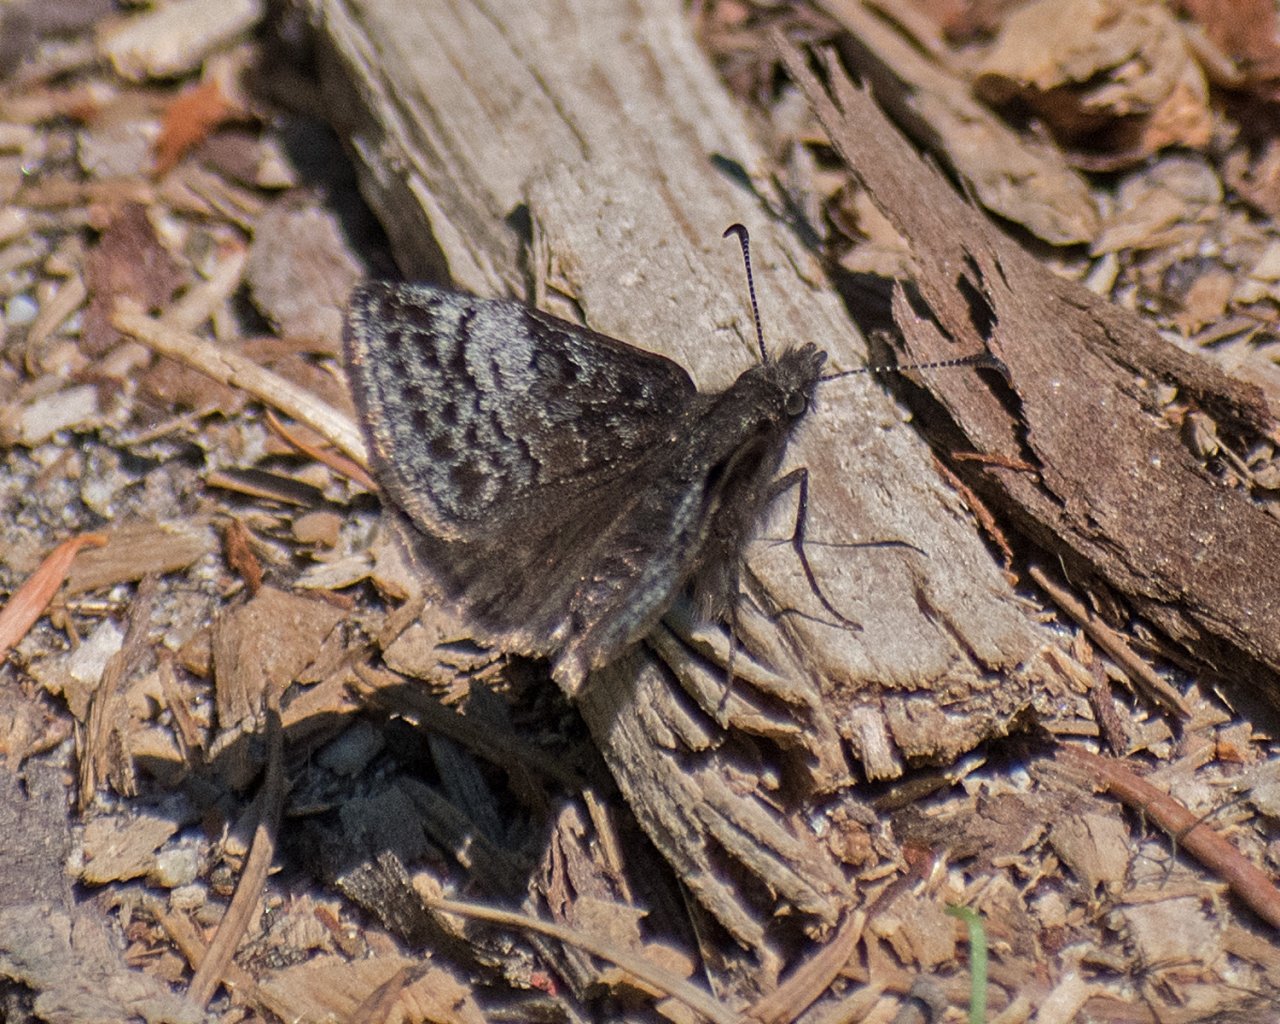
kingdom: Animalia
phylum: Arthropoda
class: Insecta
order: Lepidoptera
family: Hesperiidae
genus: Erynnis
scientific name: Erynnis icelus
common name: Dreamy Duskywing
